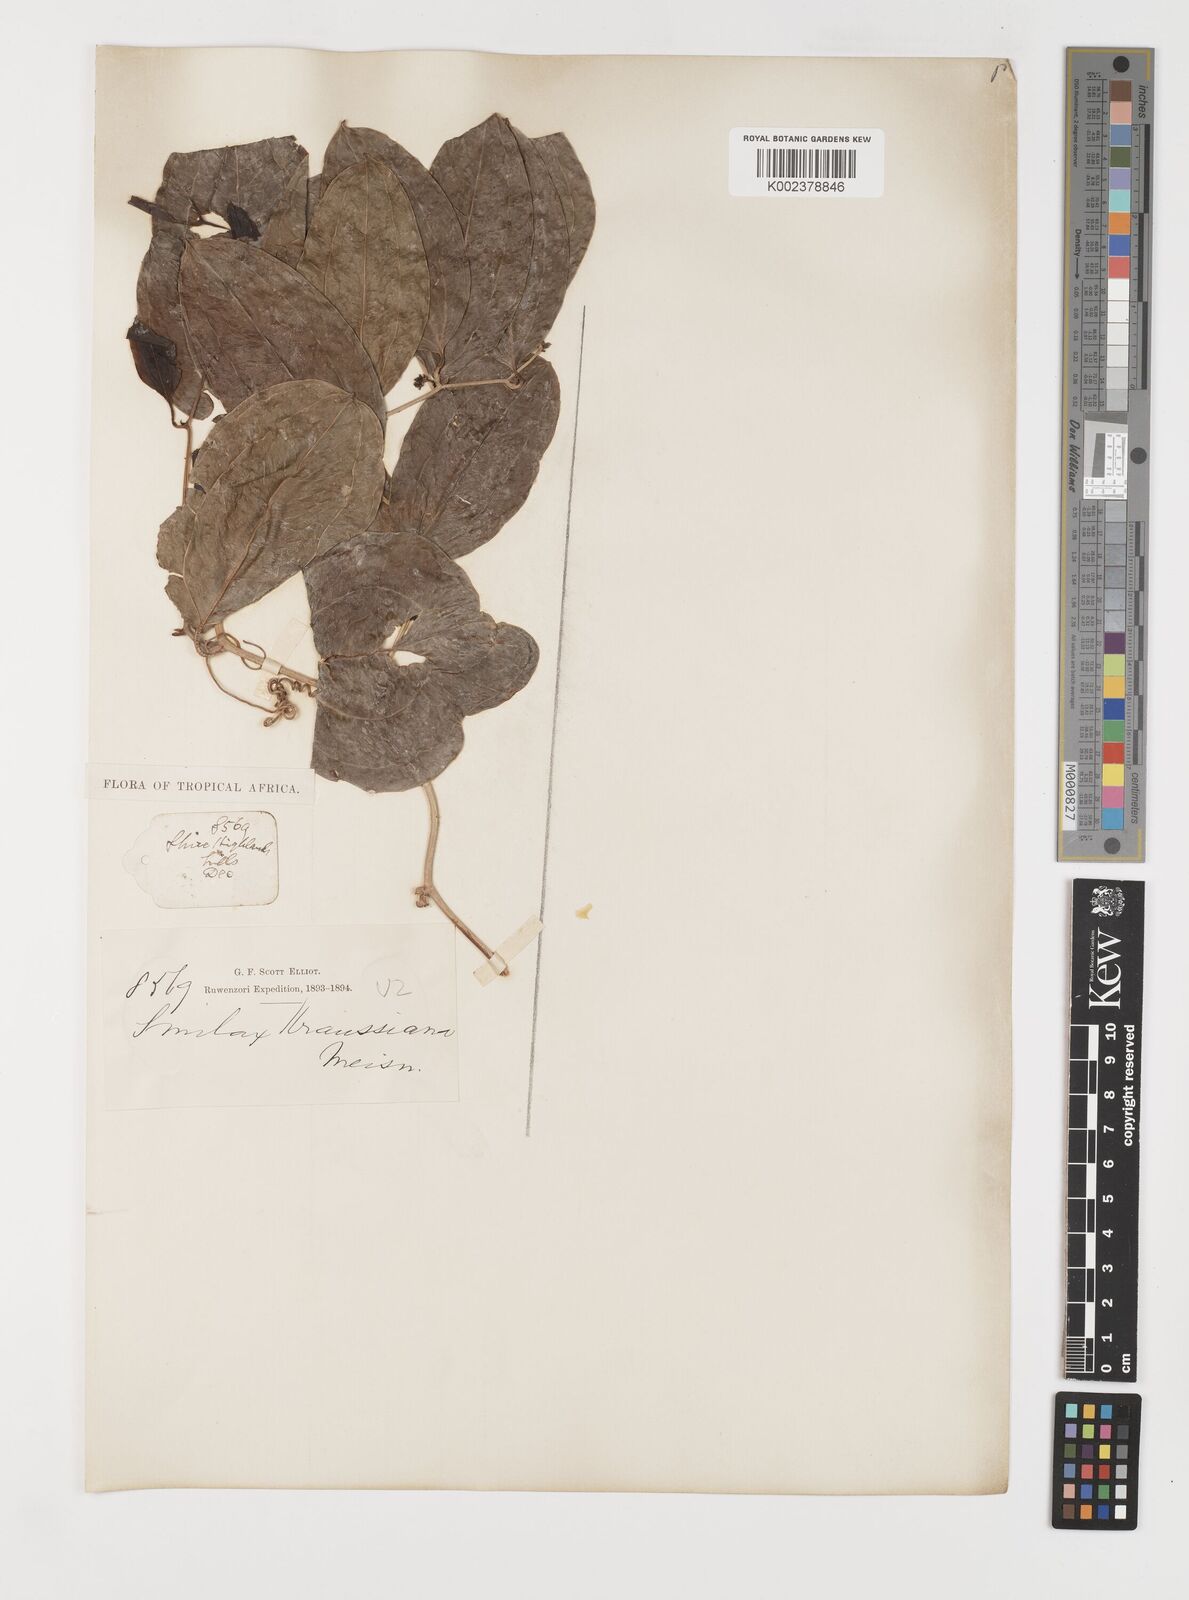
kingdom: Plantae
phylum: Tracheophyta
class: Liliopsida
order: Liliales
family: Smilacaceae
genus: Smilax
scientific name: Smilax anceps
